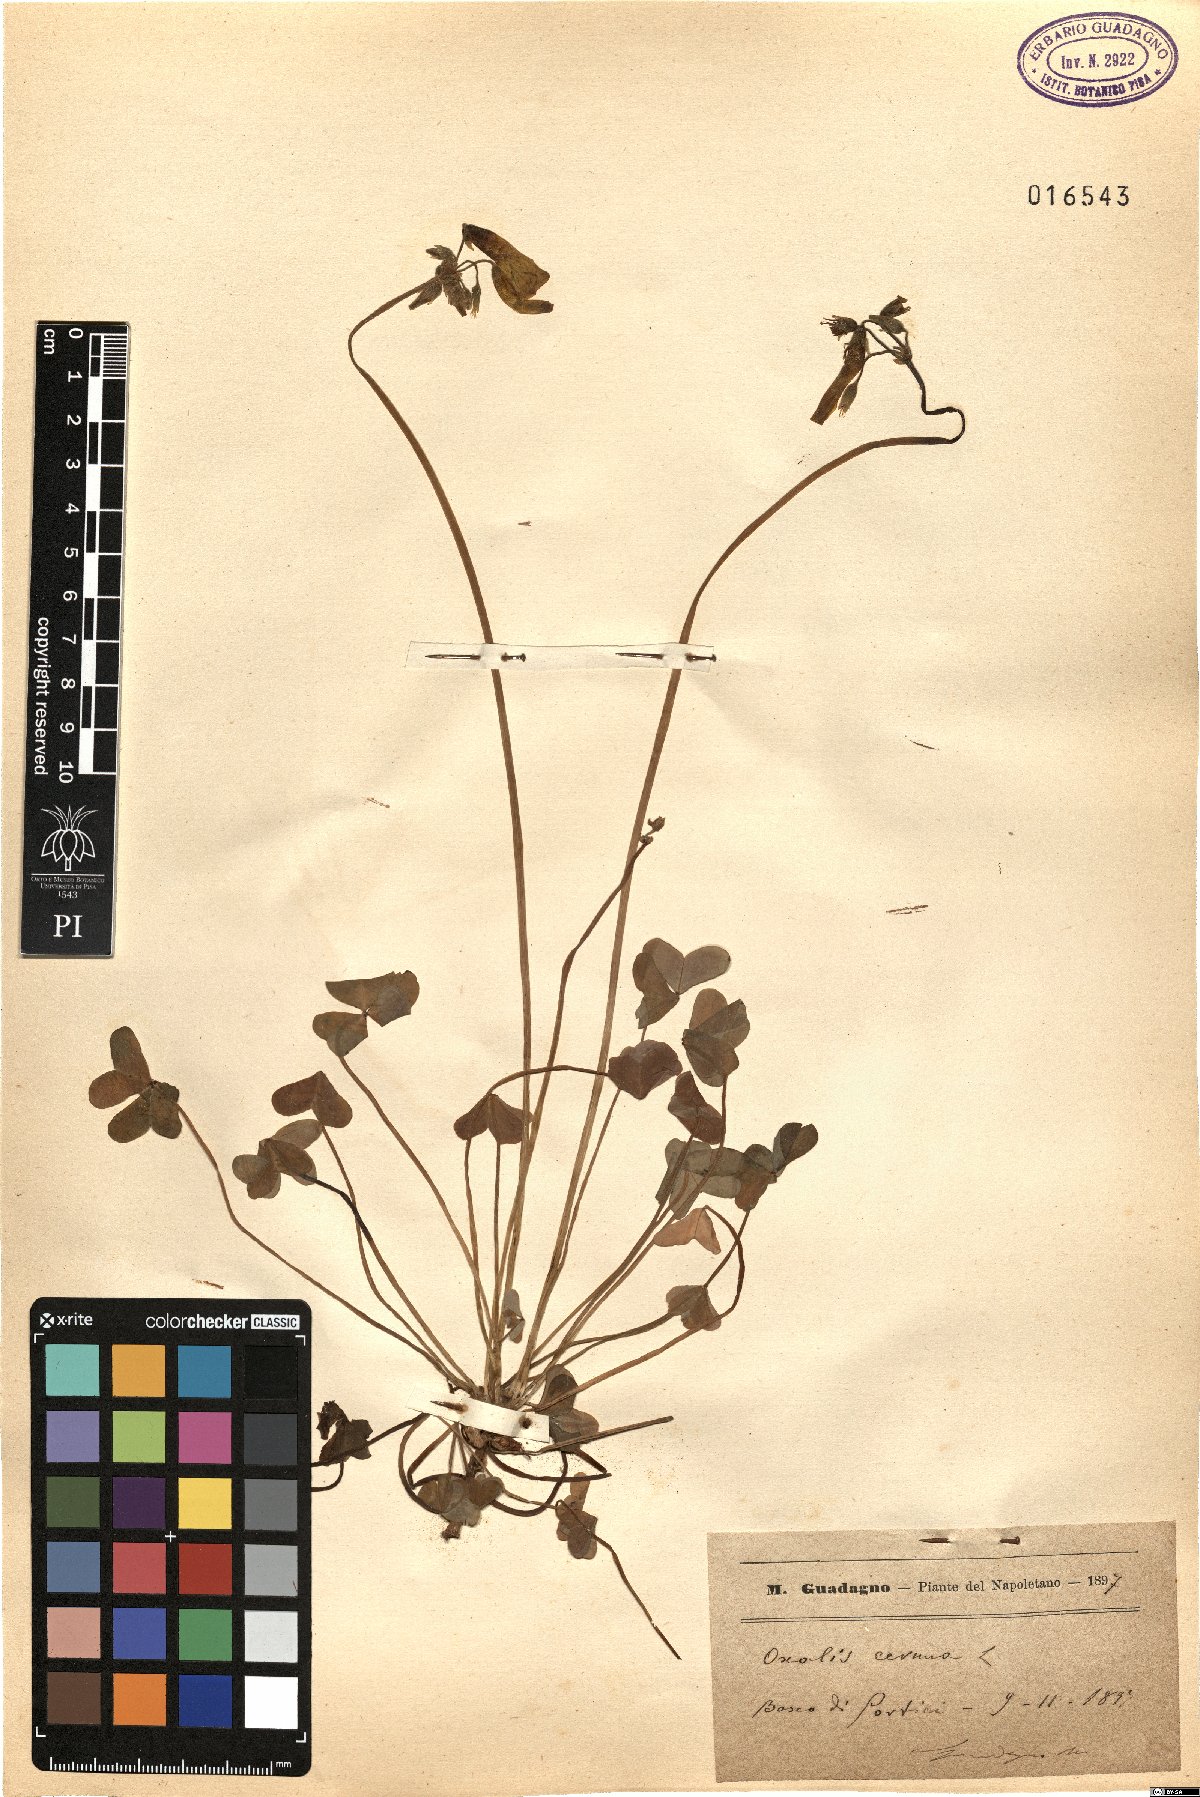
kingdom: Plantae
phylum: Tracheophyta
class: Magnoliopsida
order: Oxalidales
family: Oxalidaceae
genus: Oxalis
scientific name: Oxalis pes-caprae
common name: Bermuda-buttercup
